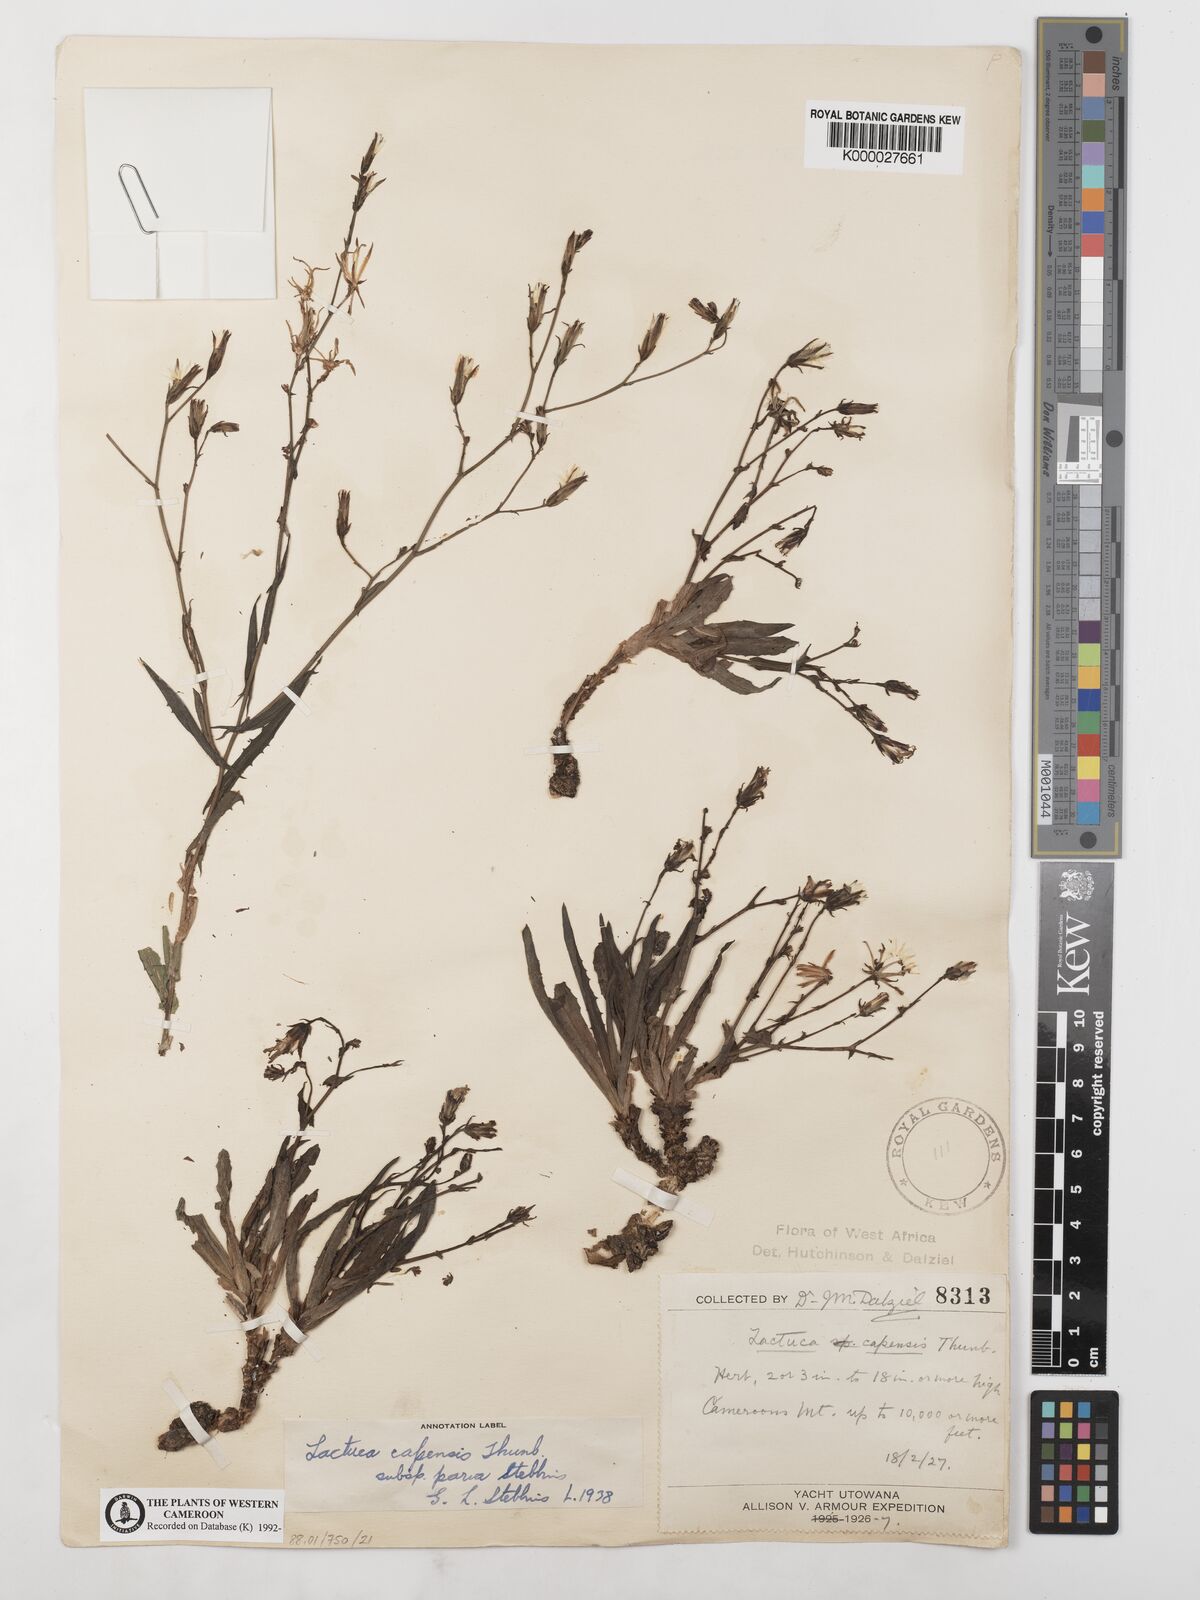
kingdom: Plantae
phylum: Tracheophyta
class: Magnoliopsida
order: Asterales
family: Asteraceae
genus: Lactuca
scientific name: Lactuca inermis
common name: Wild lettuce
